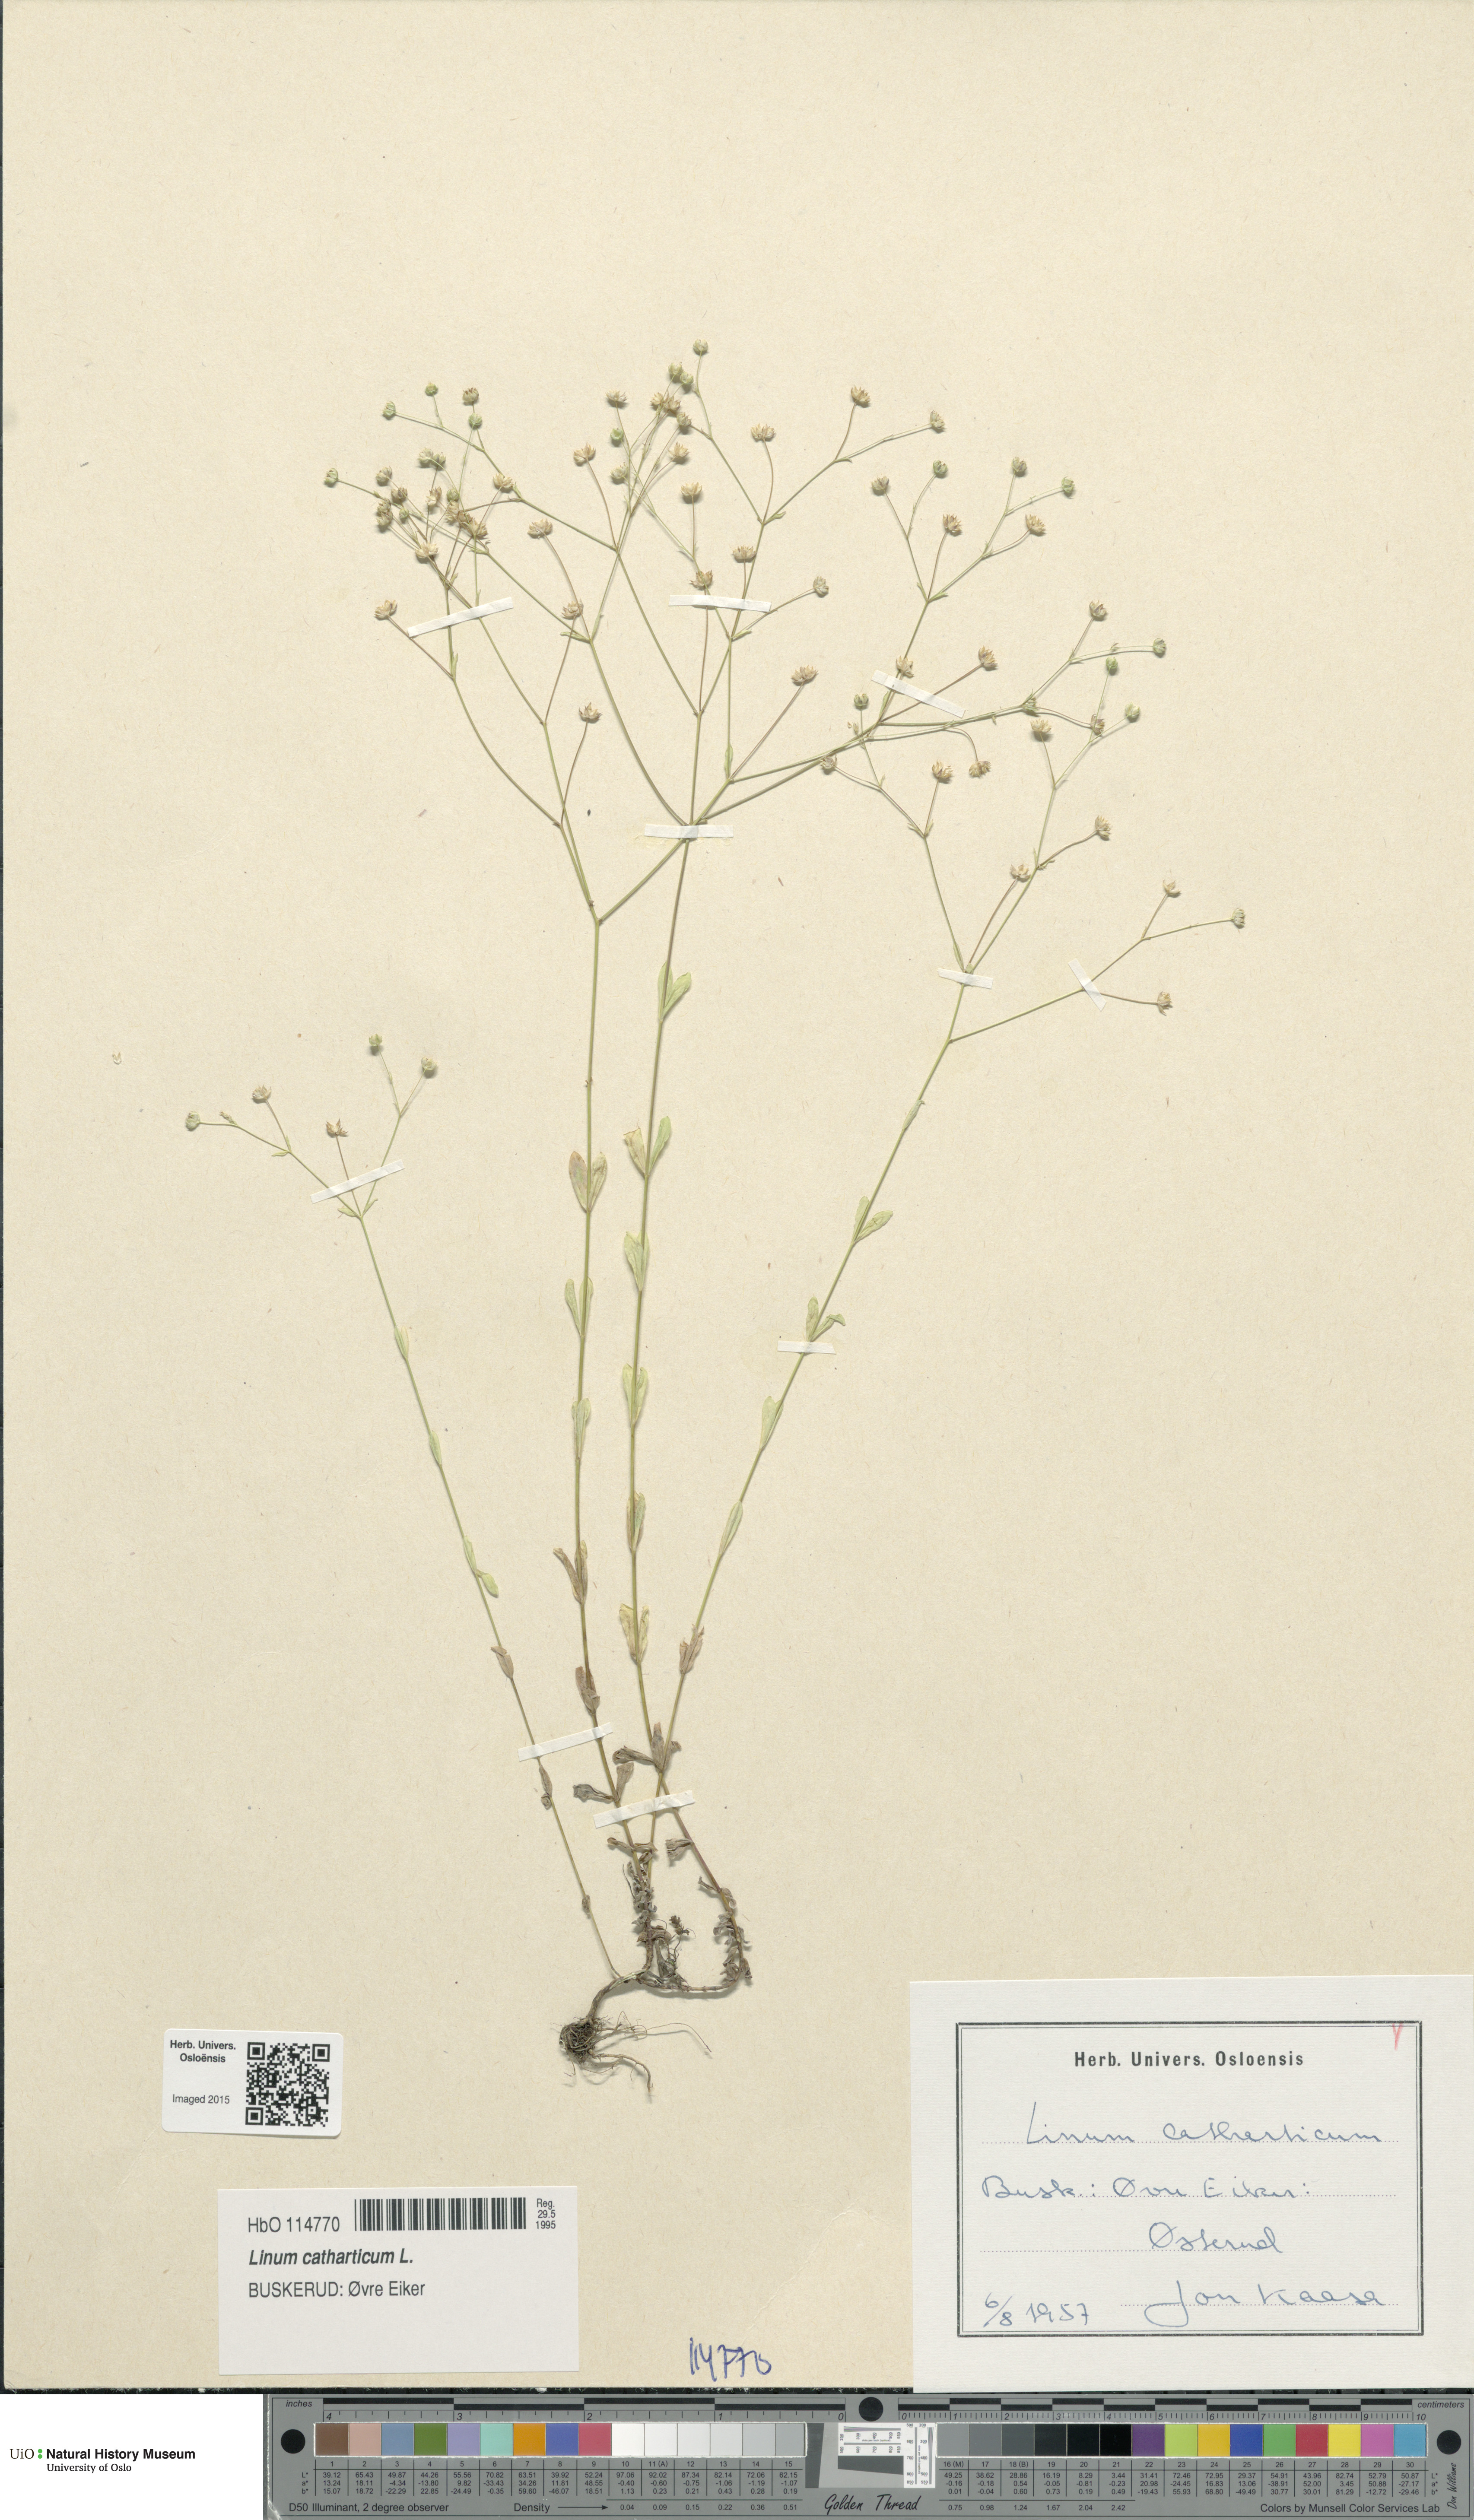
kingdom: Plantae
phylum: Tracheophyta
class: Magnoliopsida
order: Malpighiales
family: Linaceae
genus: Linum
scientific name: Linum catharticum
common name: Fairy flax
